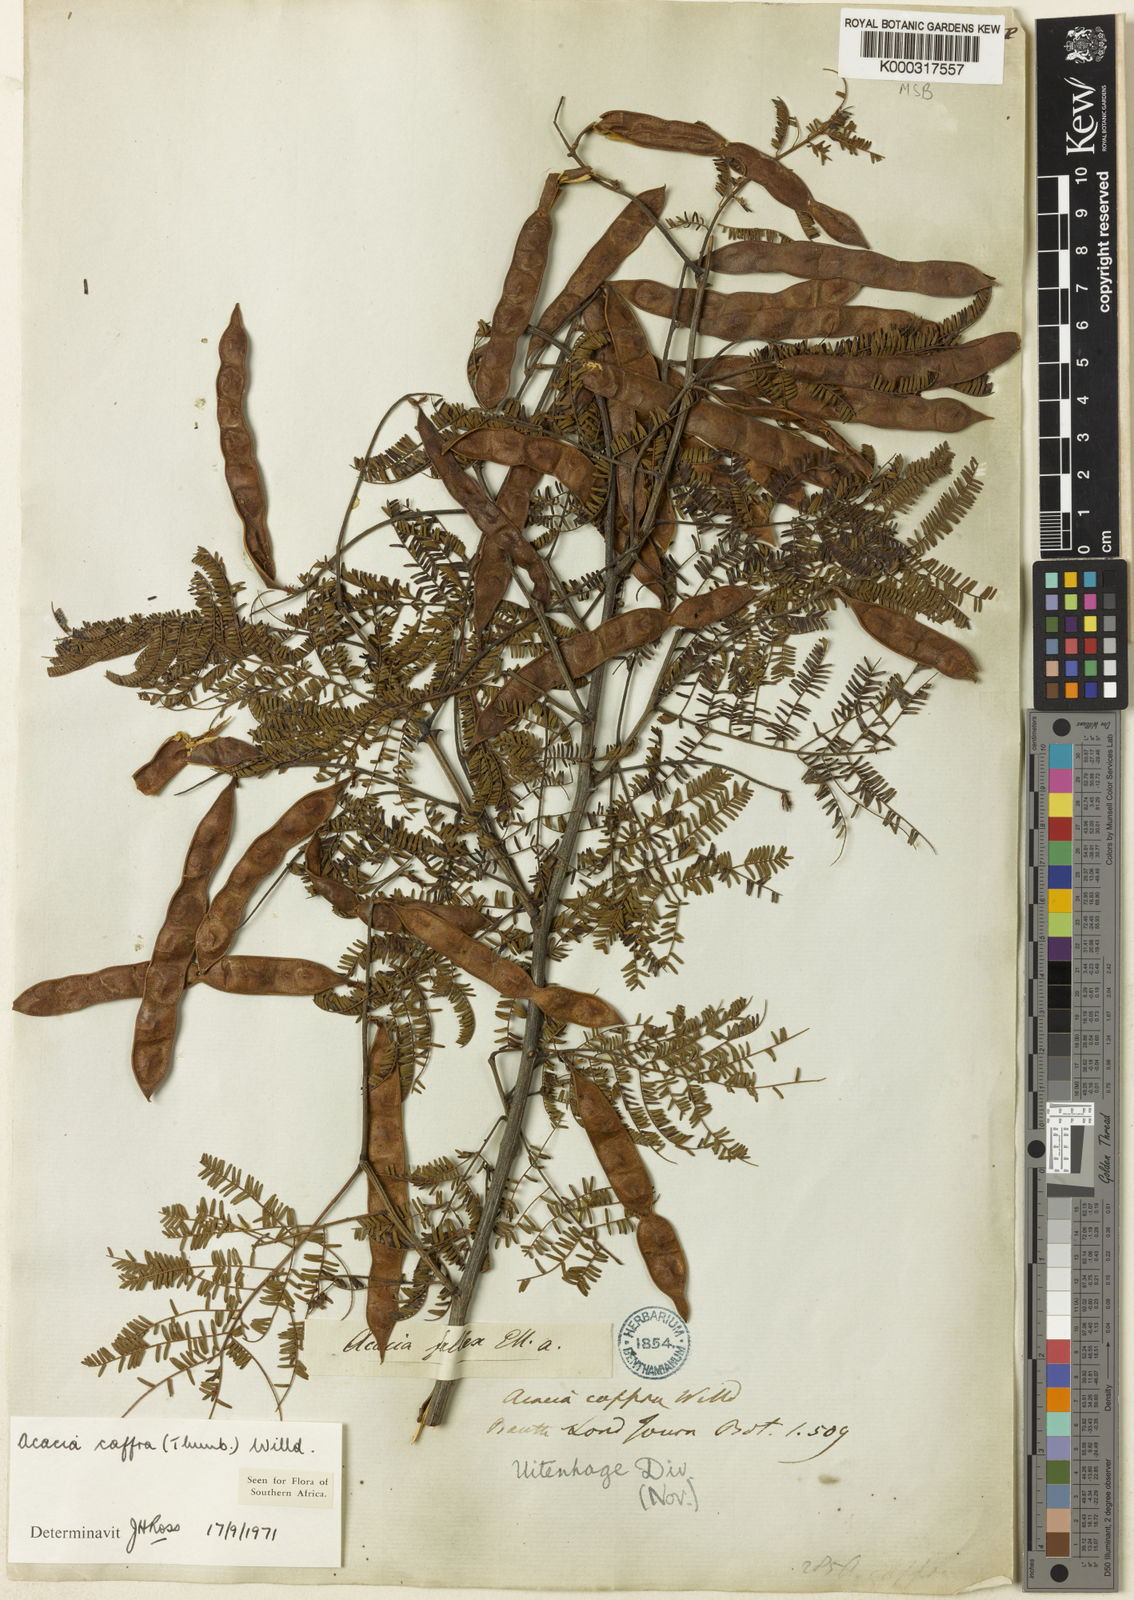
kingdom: Plantae
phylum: Tracheophyta
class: Magnoliopsida
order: Fabales
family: Fabaceae
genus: Senegalia
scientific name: Senegalia caffra
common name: Cat thorn
